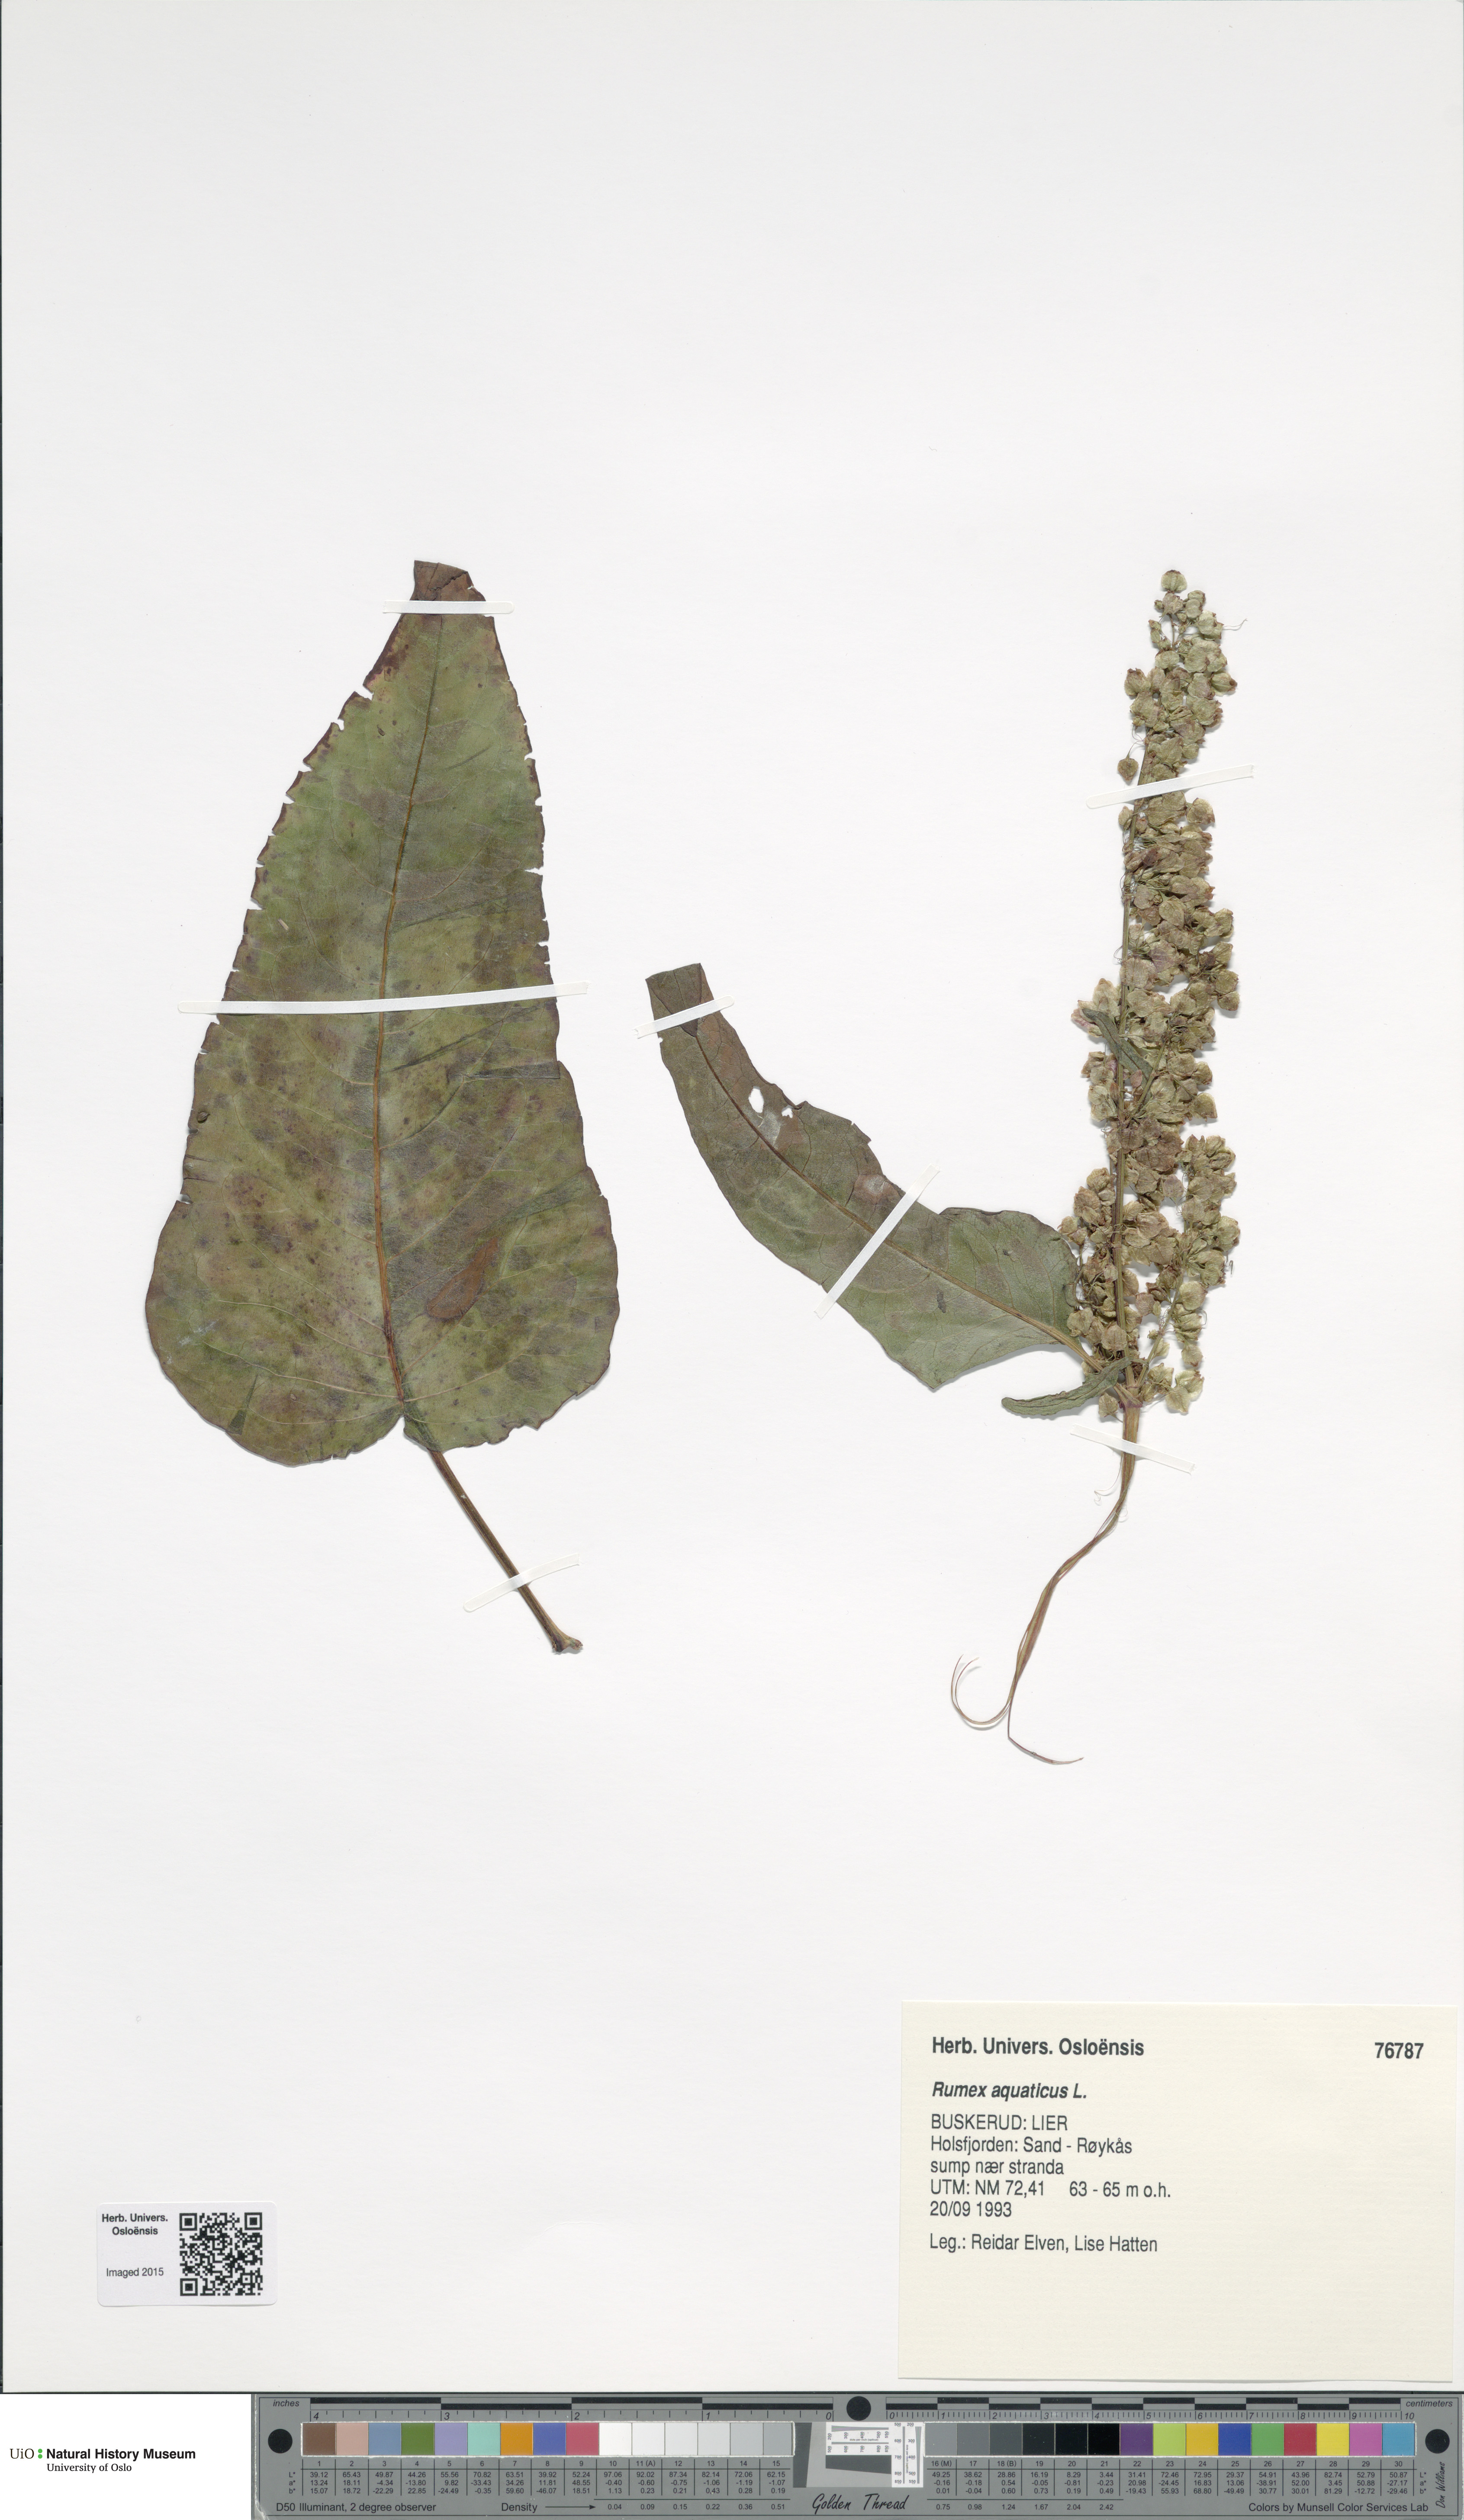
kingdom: Plantae
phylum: Tracheophyta
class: Magnoliopsida
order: Caryophyllales
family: Polygonaceae
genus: Rumex
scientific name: Rumex aquaticus
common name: Scottish dock
